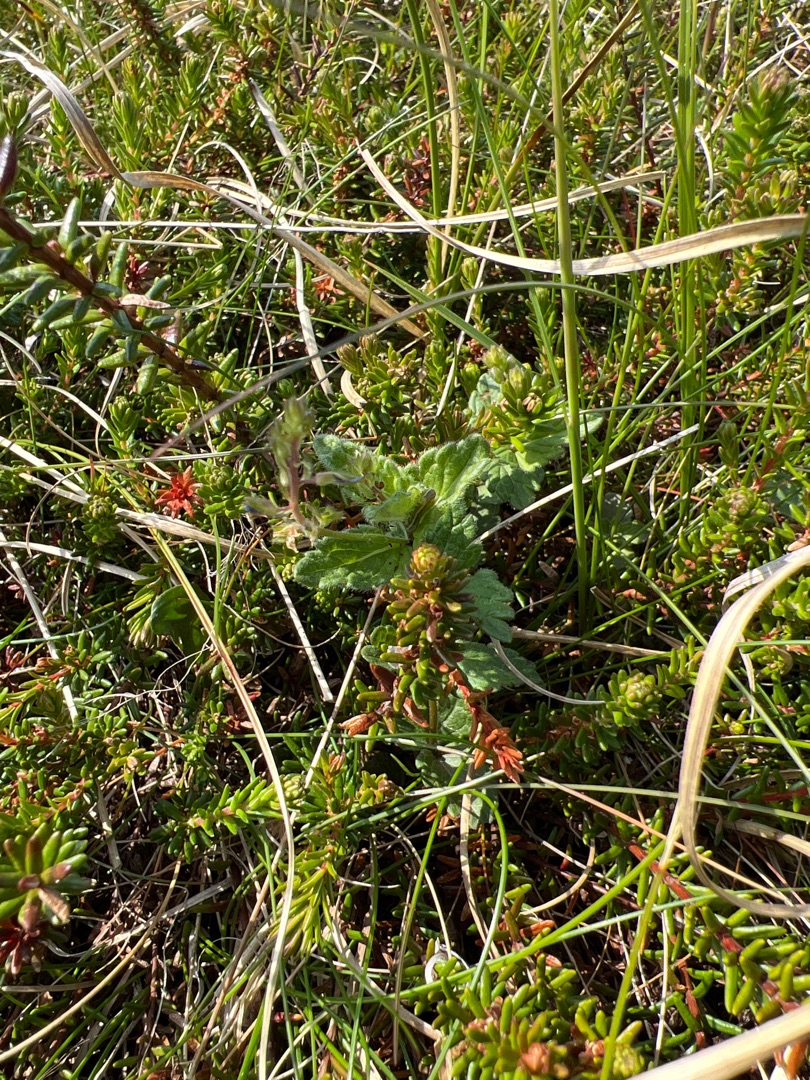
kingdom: Plantae
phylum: Tracheophyta
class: Magnoliopsida
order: Lamiales
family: Plantaginaceae
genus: Veronica
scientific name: Veronica chamaedrys
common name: Tveskægget ærenpris
